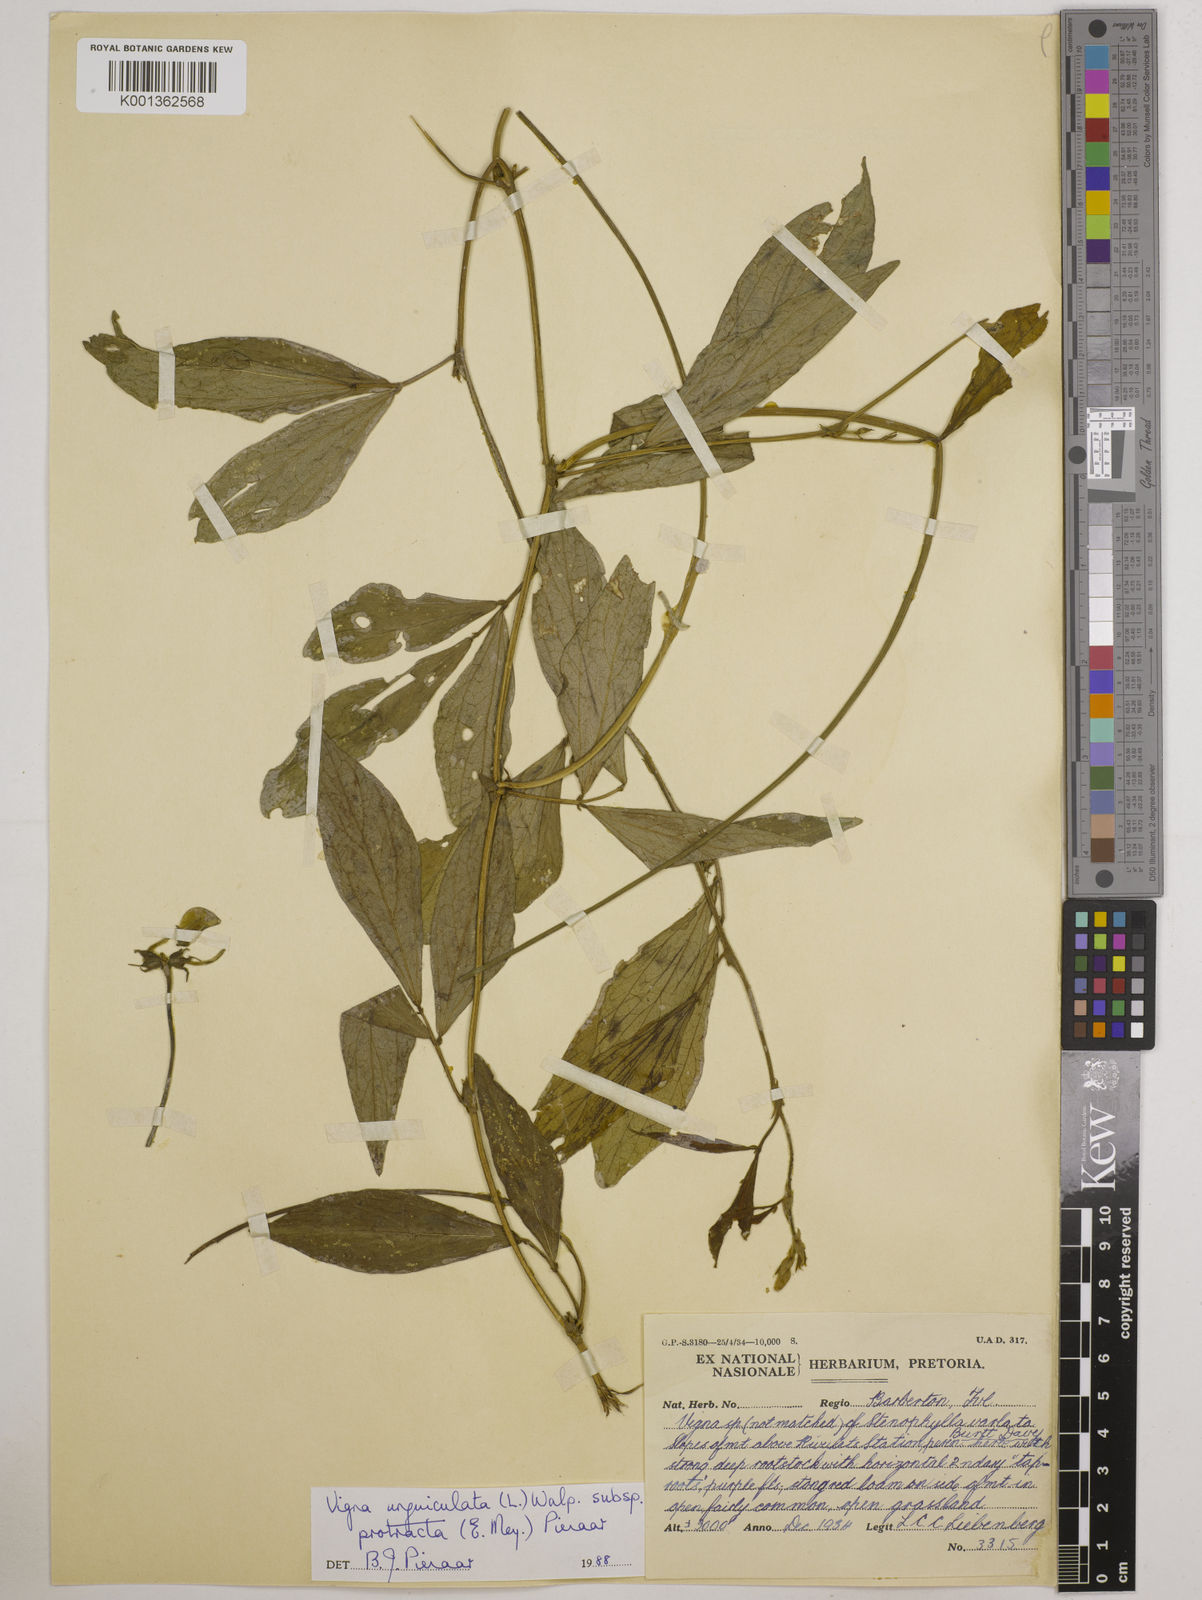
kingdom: Plantae
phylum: Tracheophyta
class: Magnoliopsida
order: Fabales
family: Fabaceae
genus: Vigna
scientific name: Vigna unguiculata
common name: Cowpea
